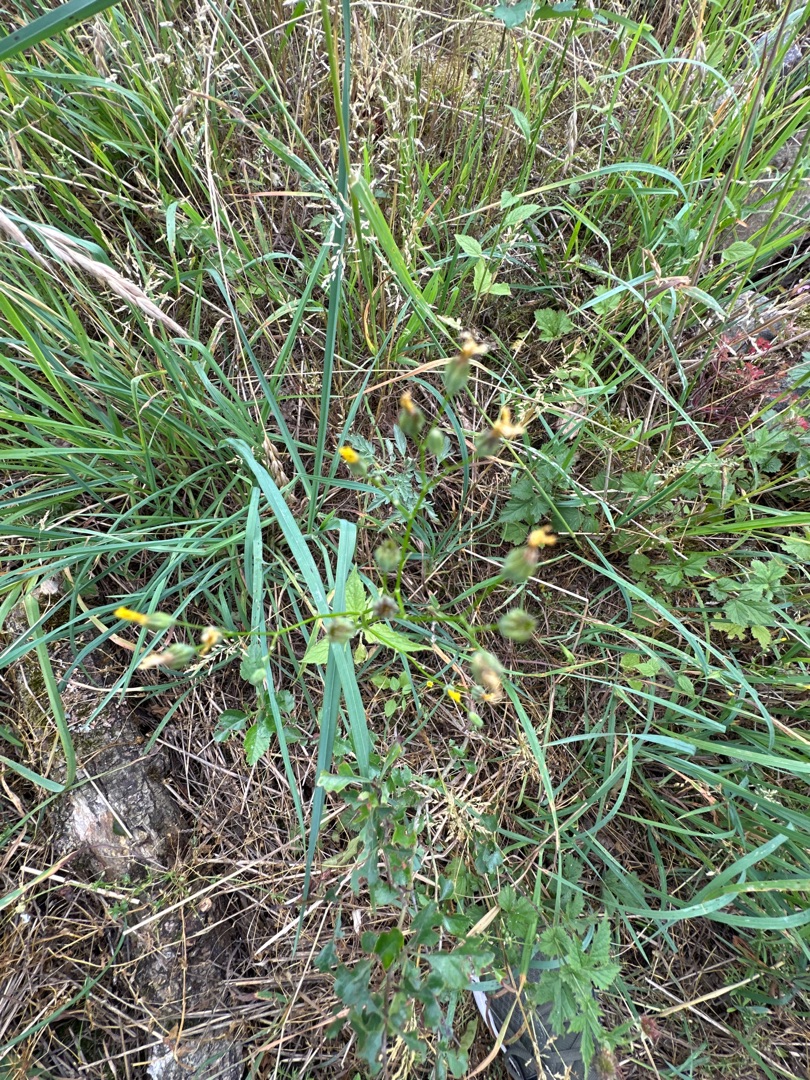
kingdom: Plantae
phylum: Tracheophyta
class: Magnoliopsida
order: Asterales
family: Asteraceae
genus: Lapsana
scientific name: Lapsana communis
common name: Haremad
